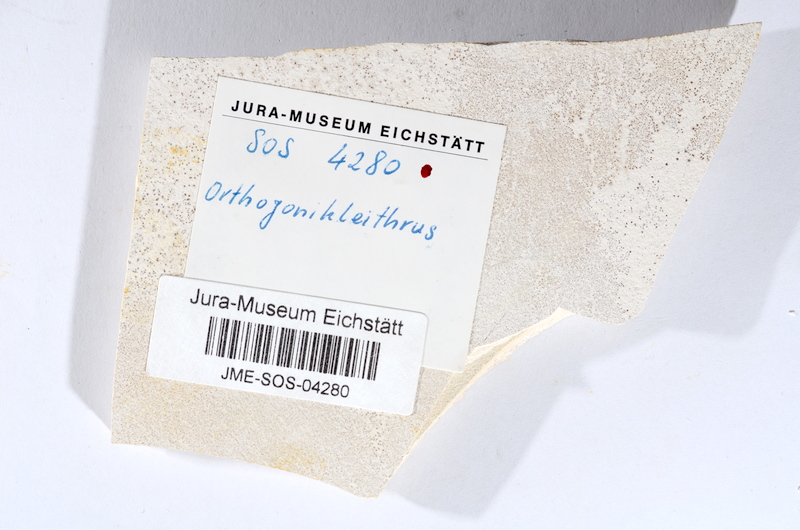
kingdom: Animalia
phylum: Chordata
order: Salmoniformes
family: Orthogonikleithridae
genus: Orthogonikleithrus
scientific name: Orthogonikleithrus hoelli
